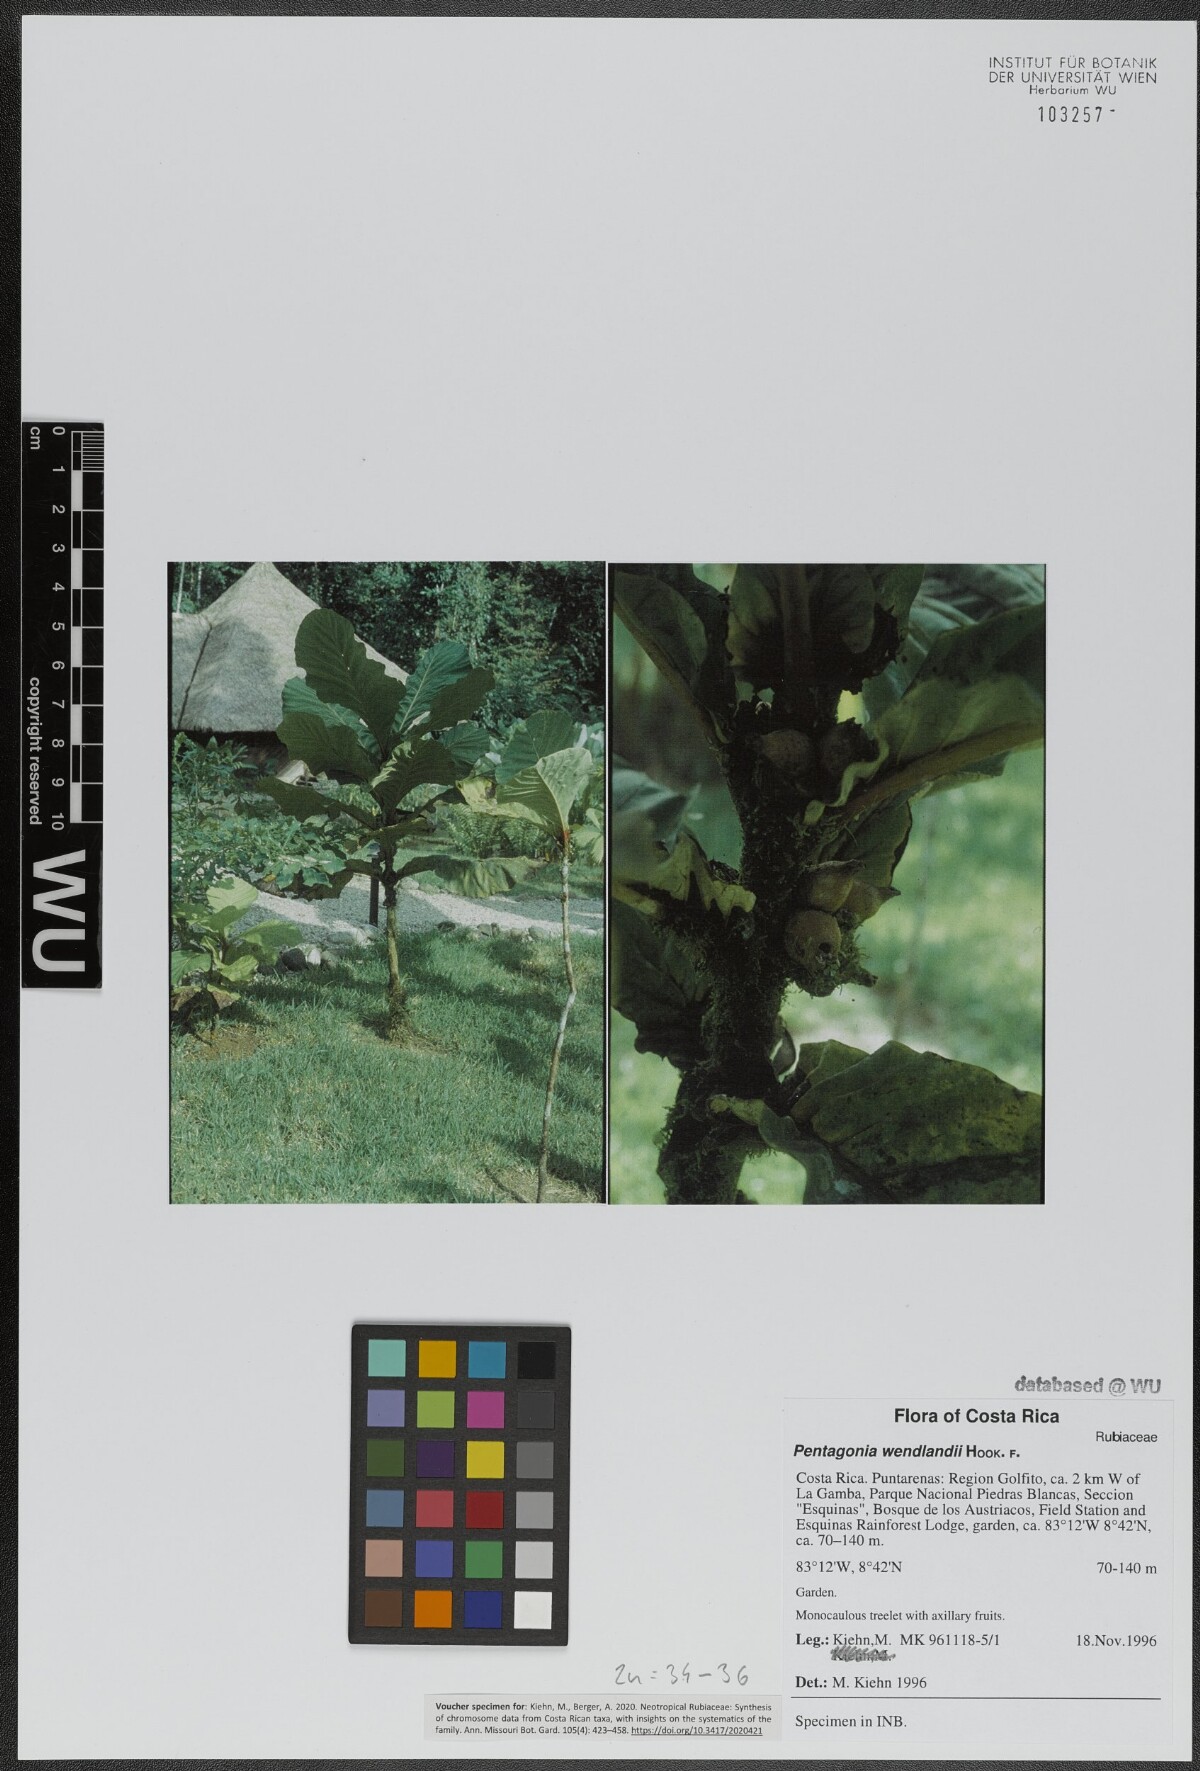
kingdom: Plantae
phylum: Tracheophyta
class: Magnoliopsida
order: Gentianales
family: Rubiaceae
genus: Pentagonia
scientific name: Pentagonia wendlandii
